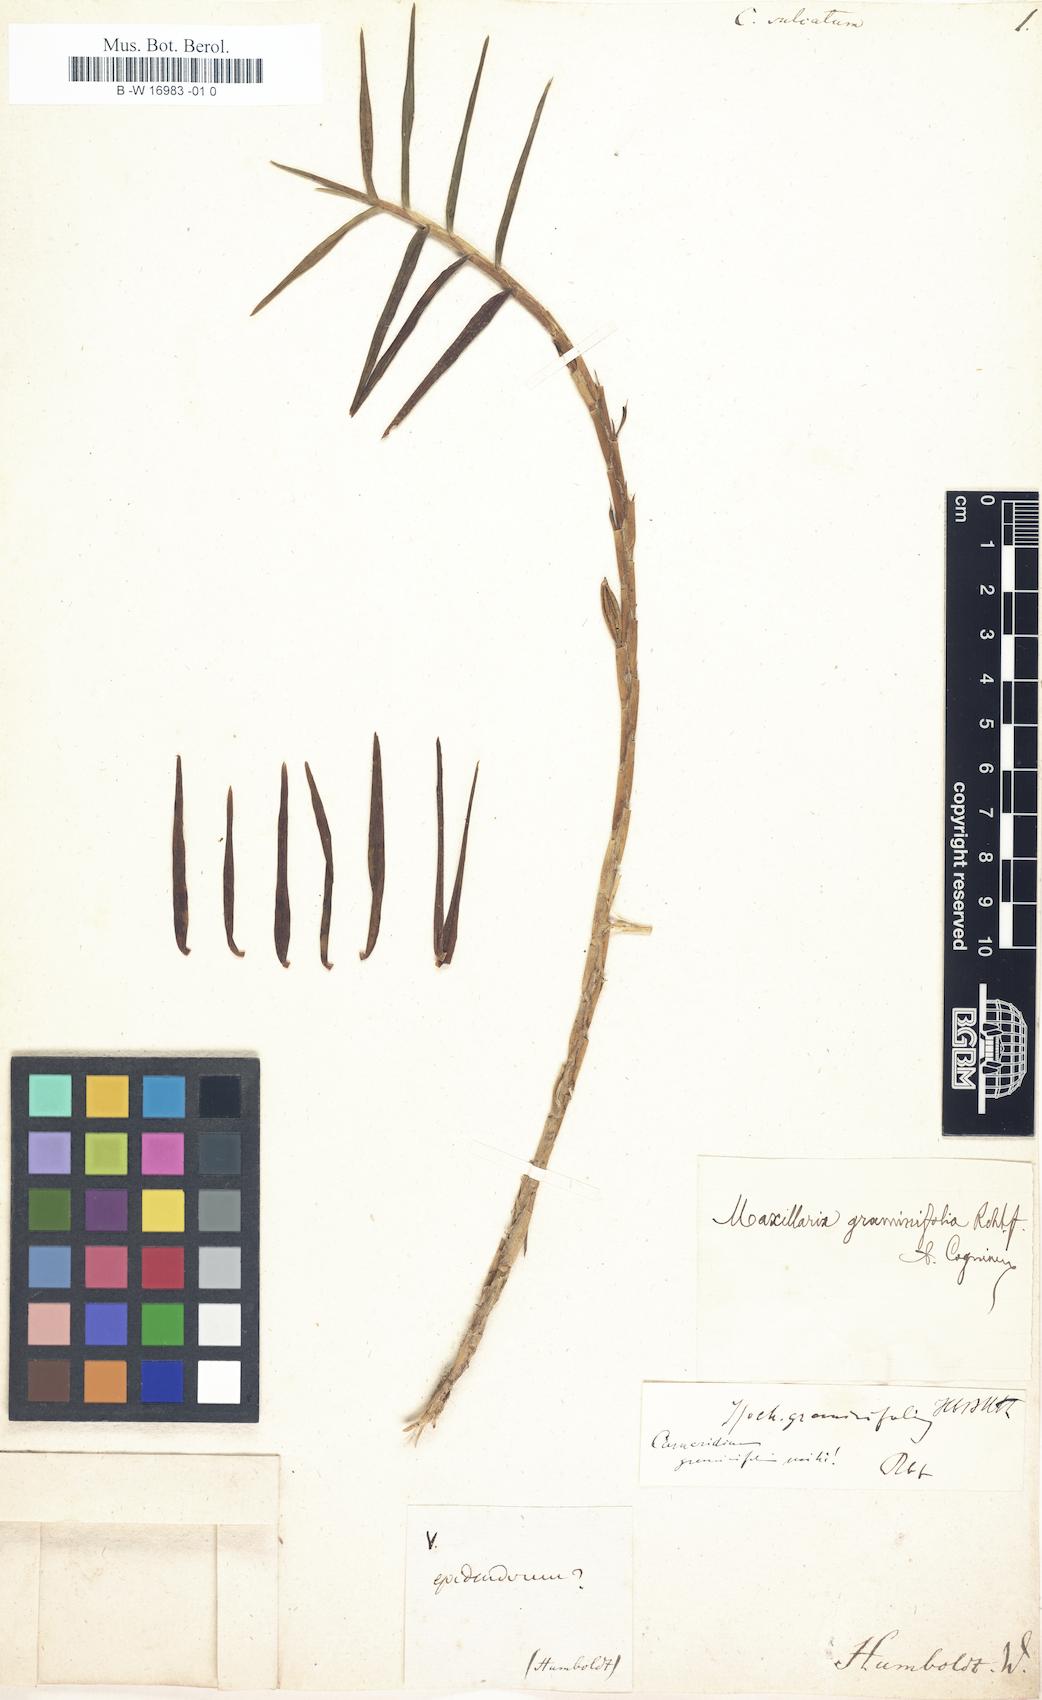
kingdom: Plantae
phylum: Tracheophyta
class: Liliopsida
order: Asparagales
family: Orchidaceae
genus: Cymbidium
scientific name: Cymbidium
